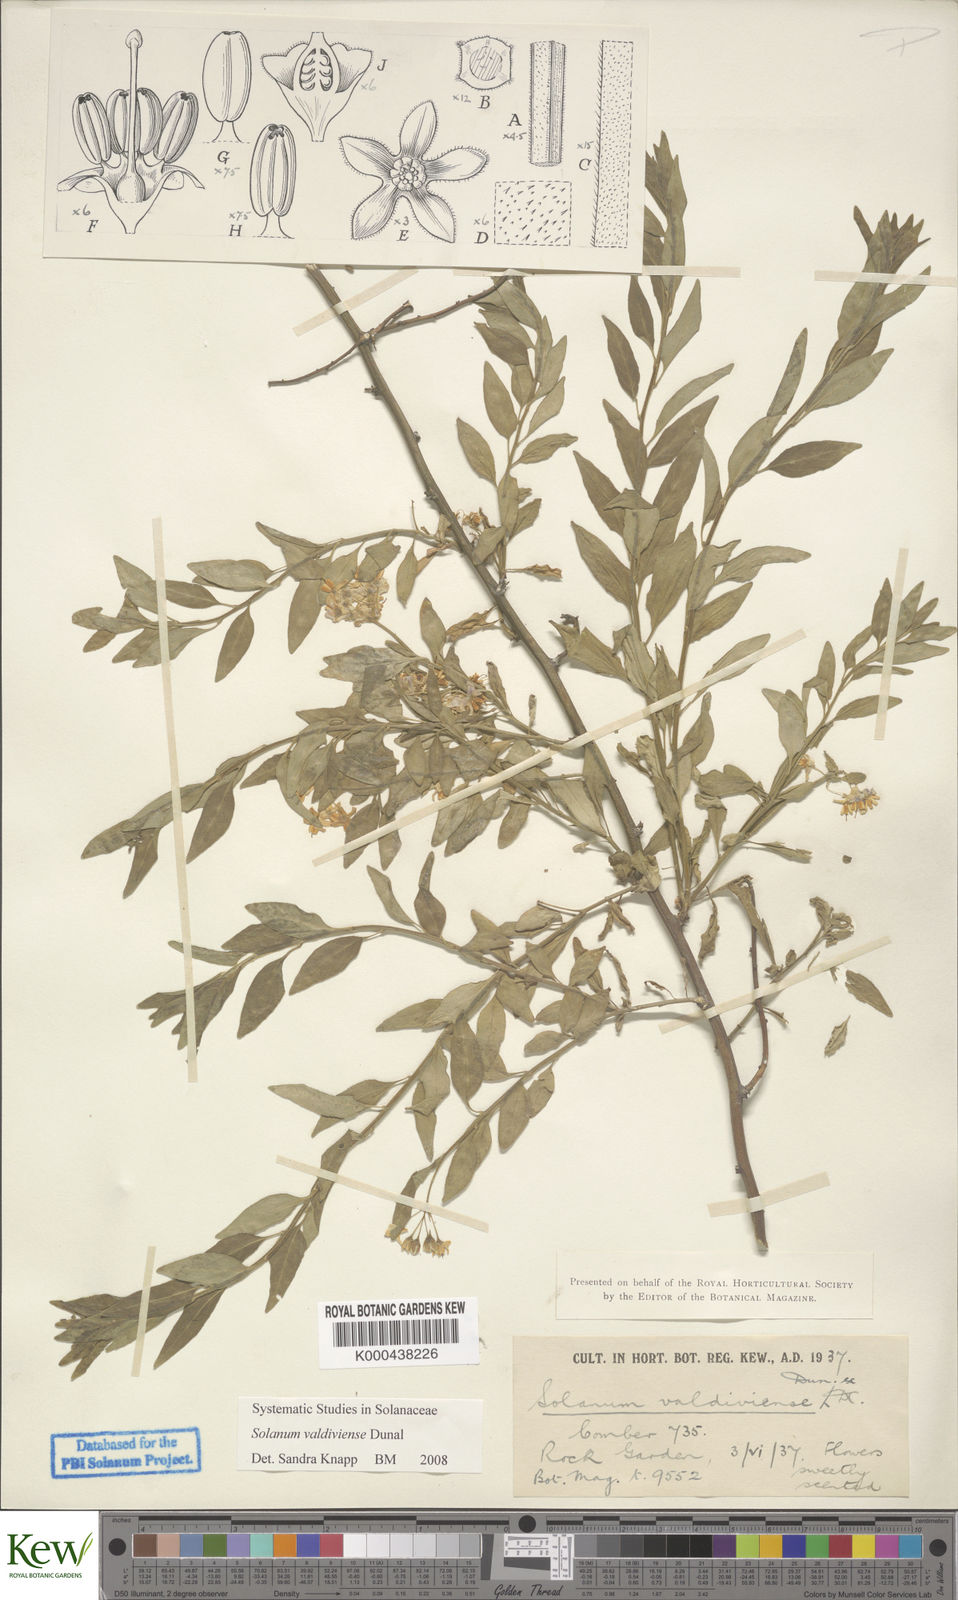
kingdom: Plantae
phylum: Tracheophyta
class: Magnoliopsida
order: Solanales
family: Solanaceae
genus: Solanum
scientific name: Solanum valdiviense
